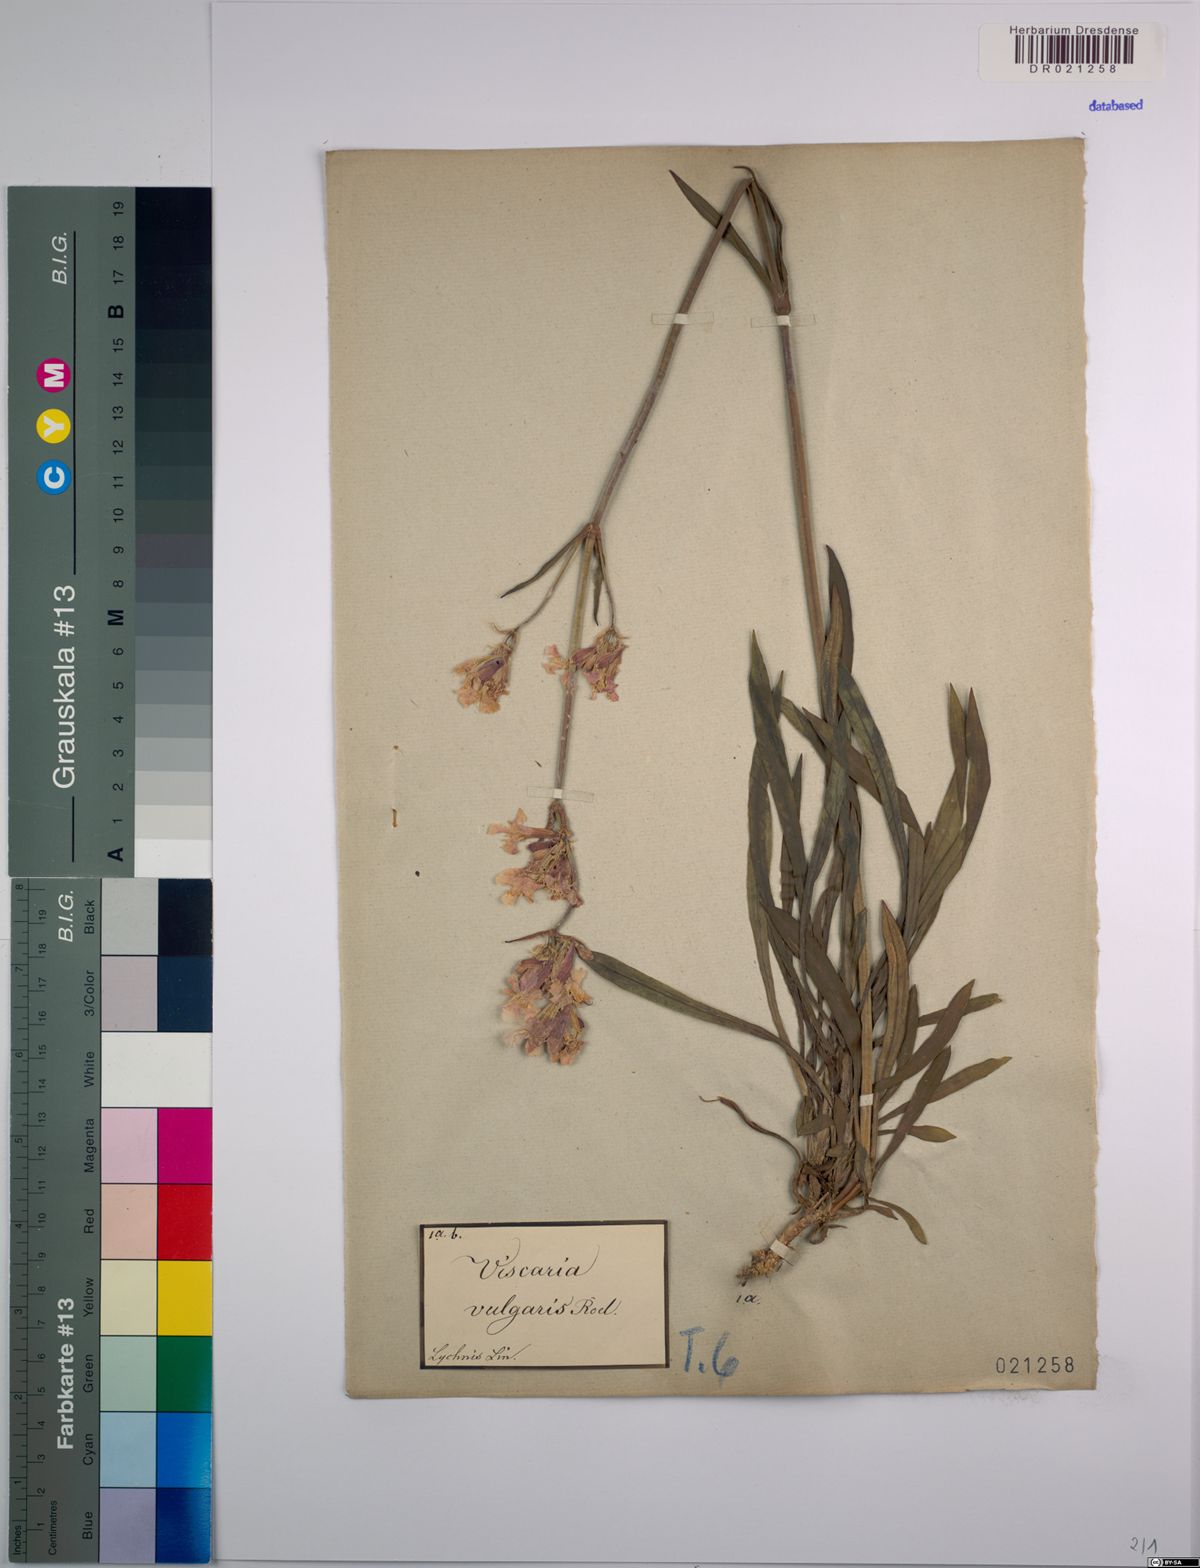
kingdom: Plantae
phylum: Tracheophyta
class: Magnoliopsida
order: Caryophyllales
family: Caryophyllaceae
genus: Viscaria
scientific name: Viscaria vulgaris
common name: Clammy campion
